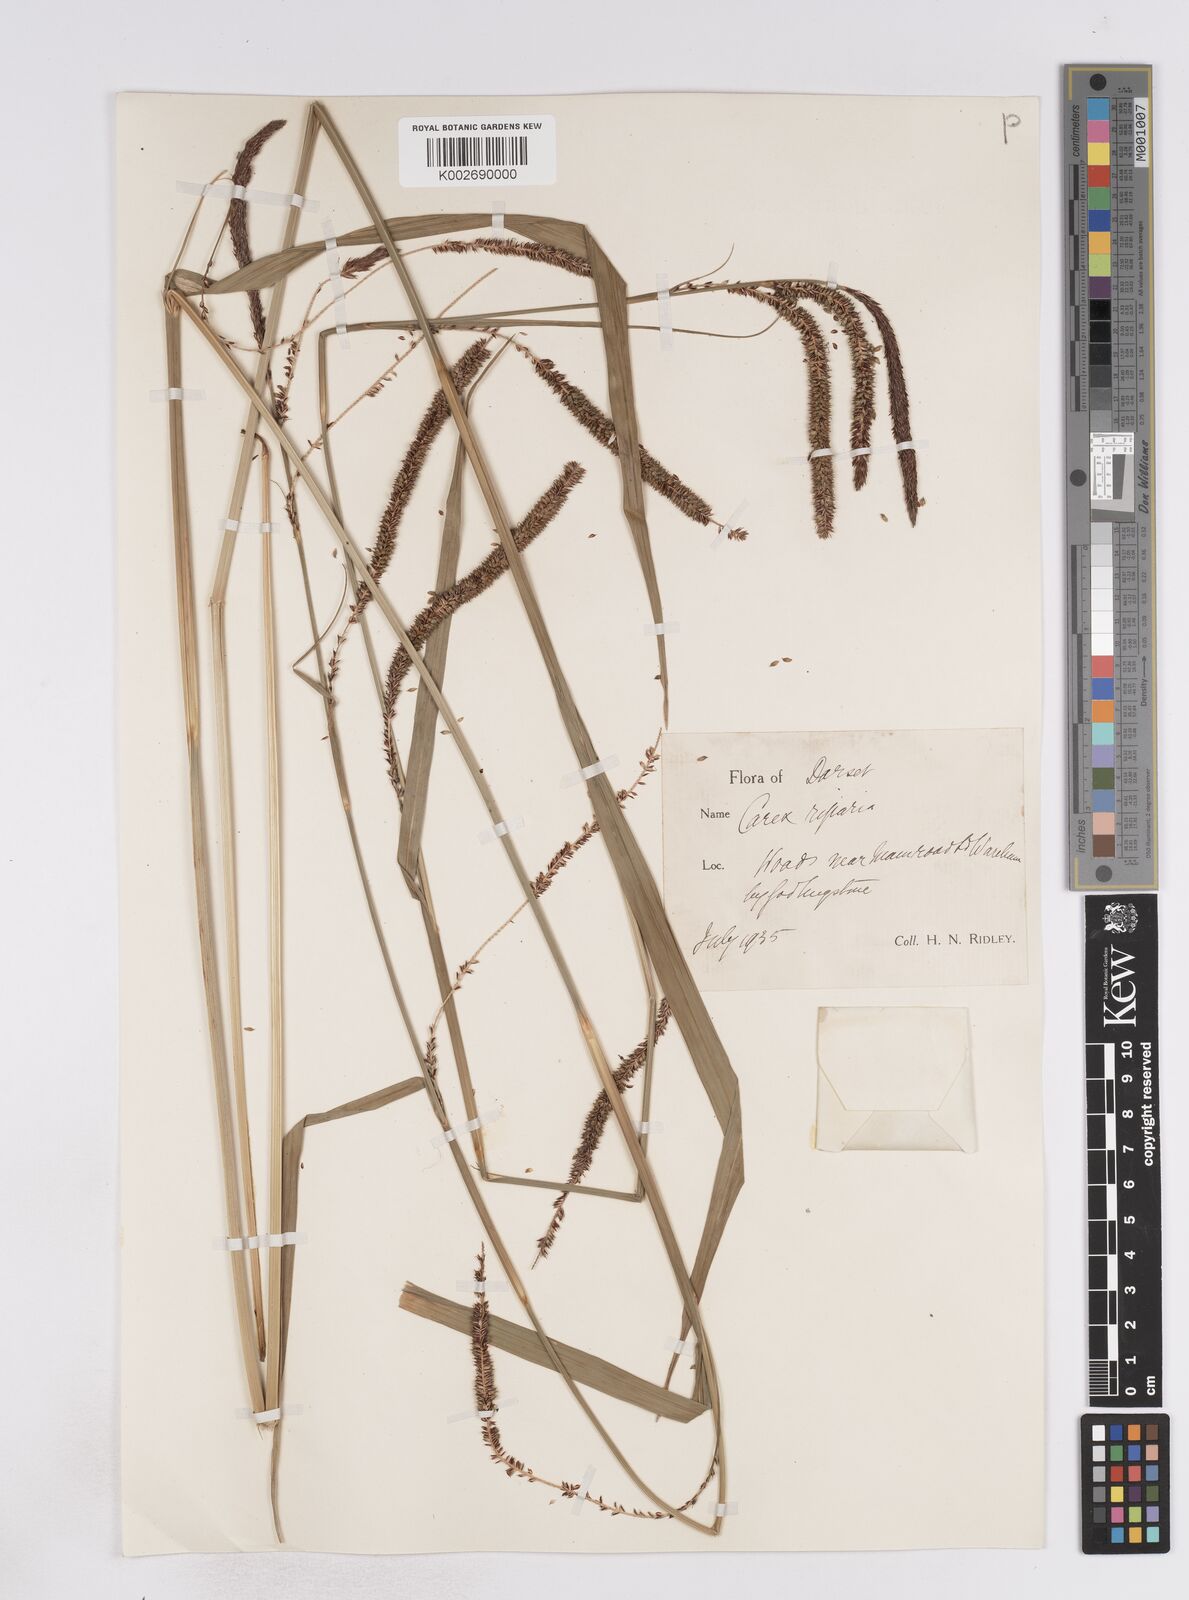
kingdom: Plantae
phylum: Tracheophyta
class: Liliopsida
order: Poales
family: Cyperaceae
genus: Carex
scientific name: Carex pendula
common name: Pendulous sedge
